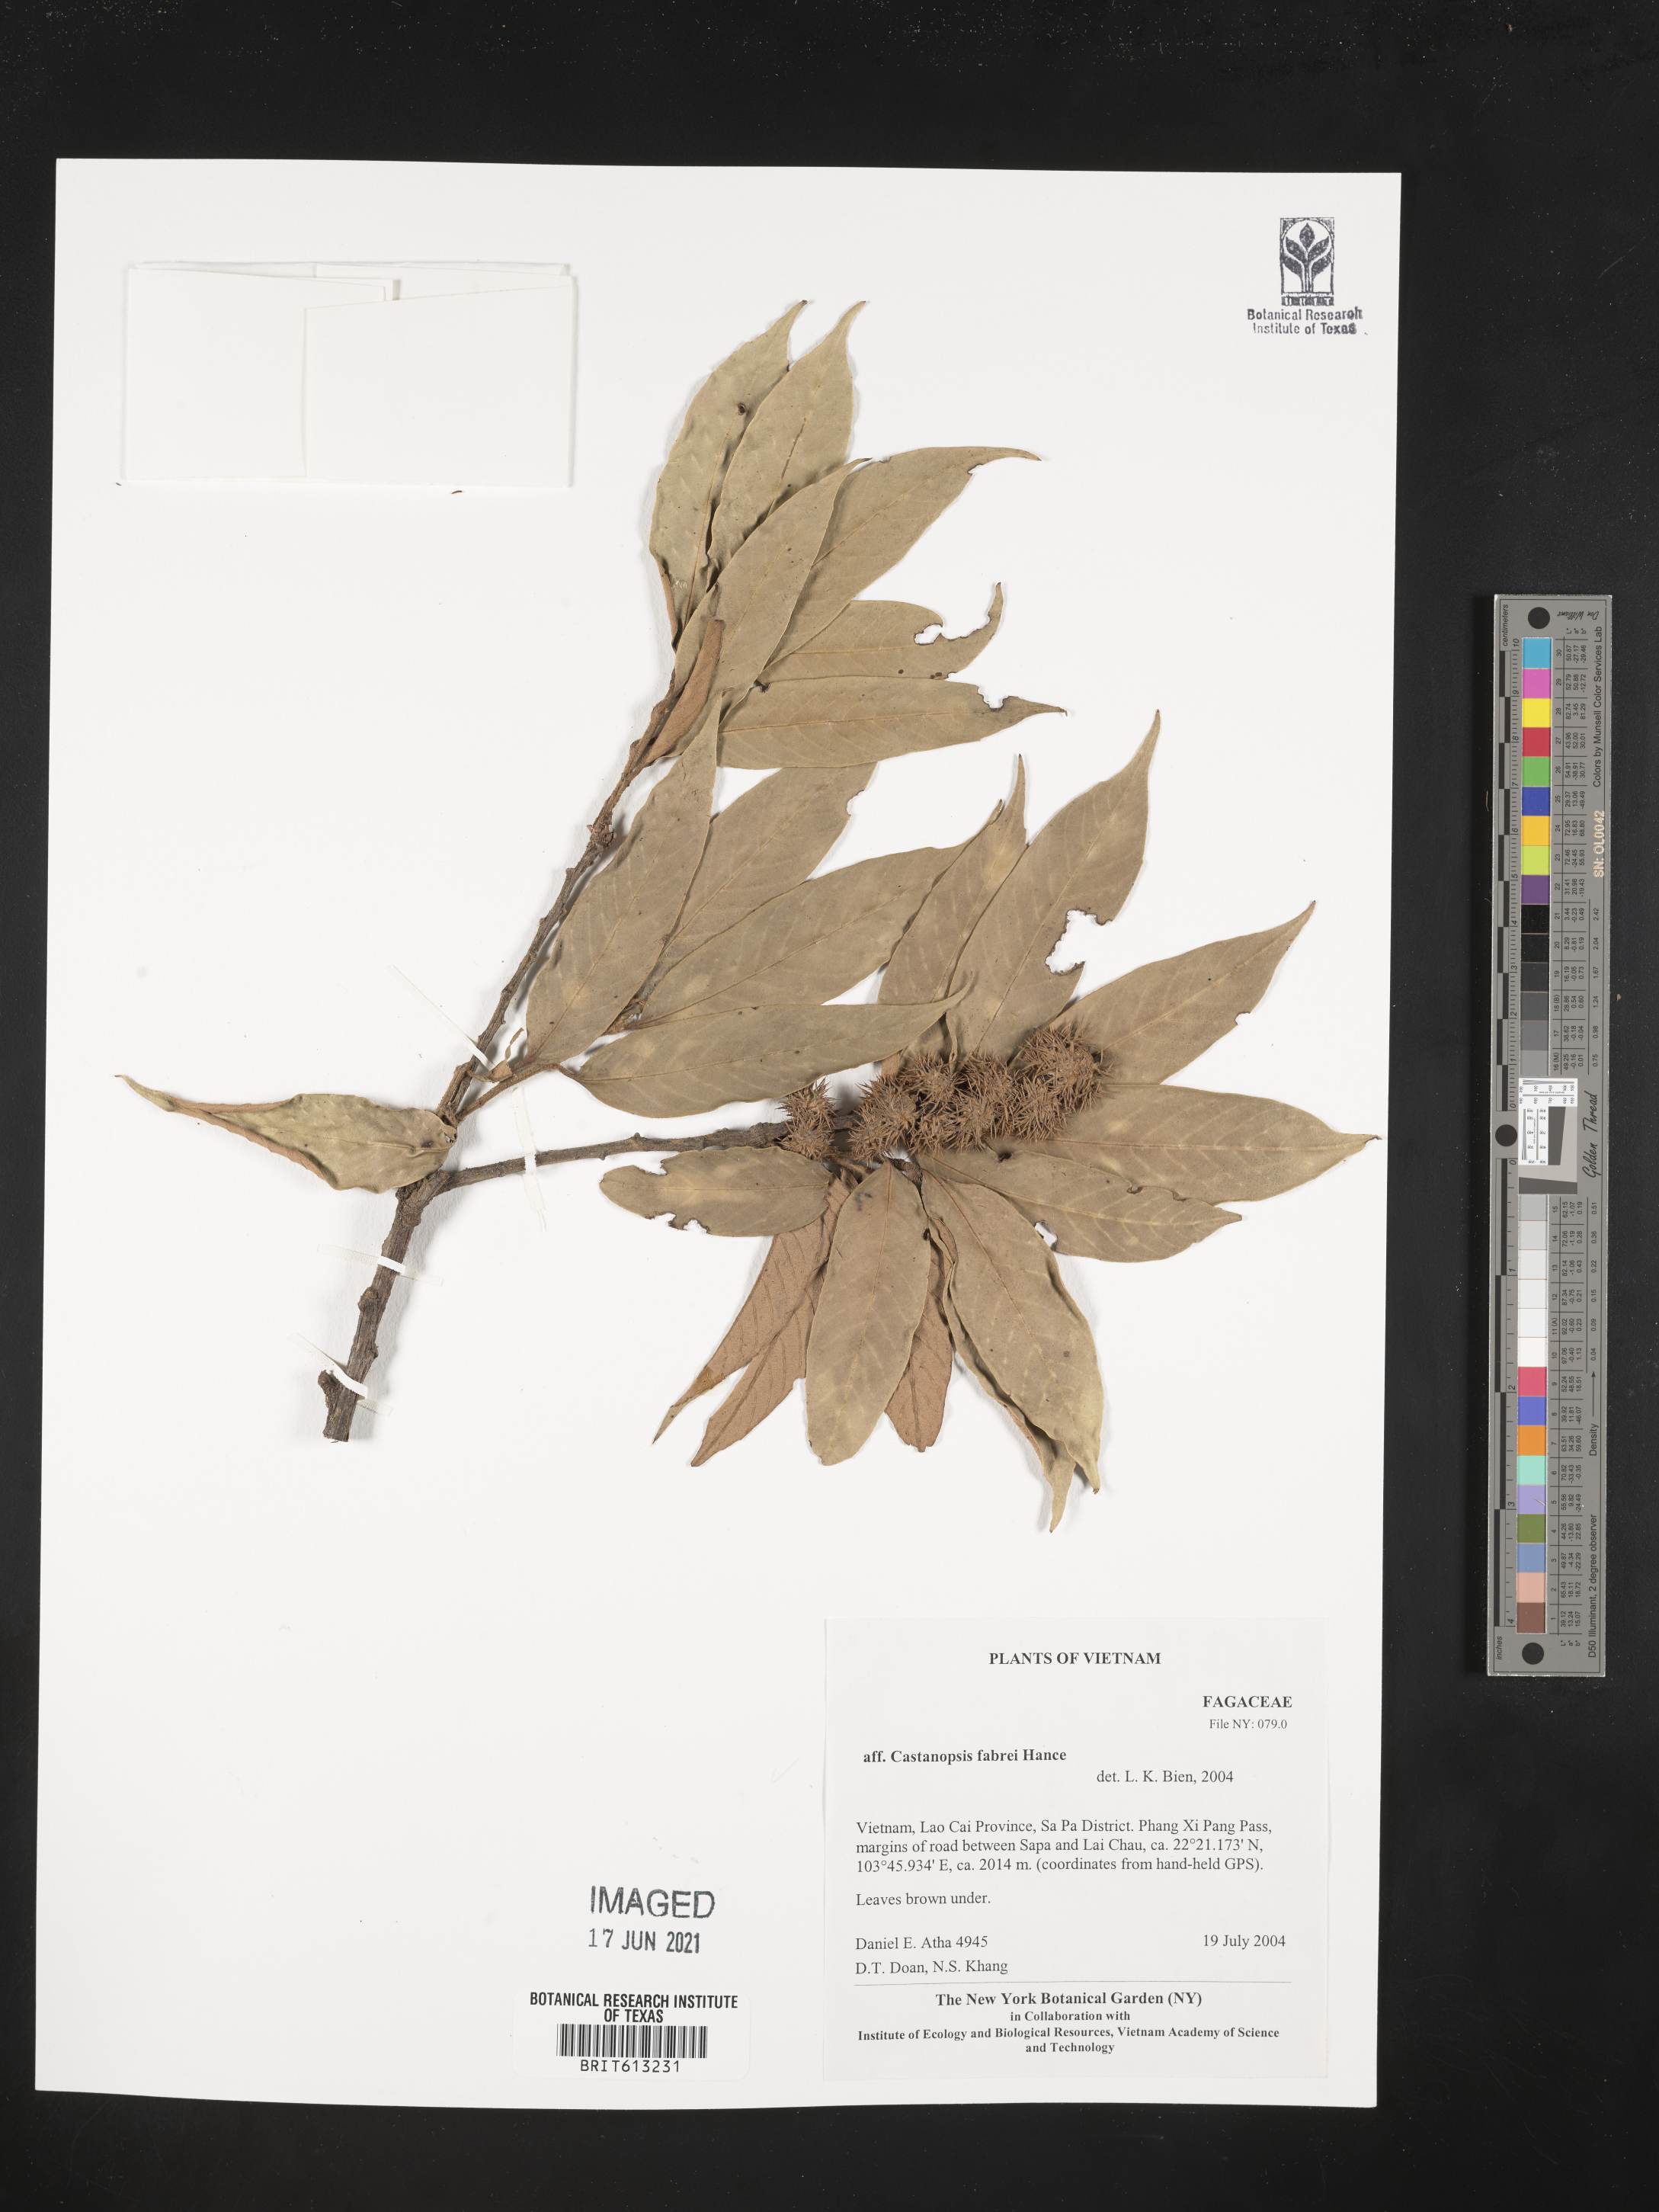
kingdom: Plantae
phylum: Tracheophyta
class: Magnoliopsida
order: Fagales
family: Fagaceae
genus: Castanopsis
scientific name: Castanopsis faberi
